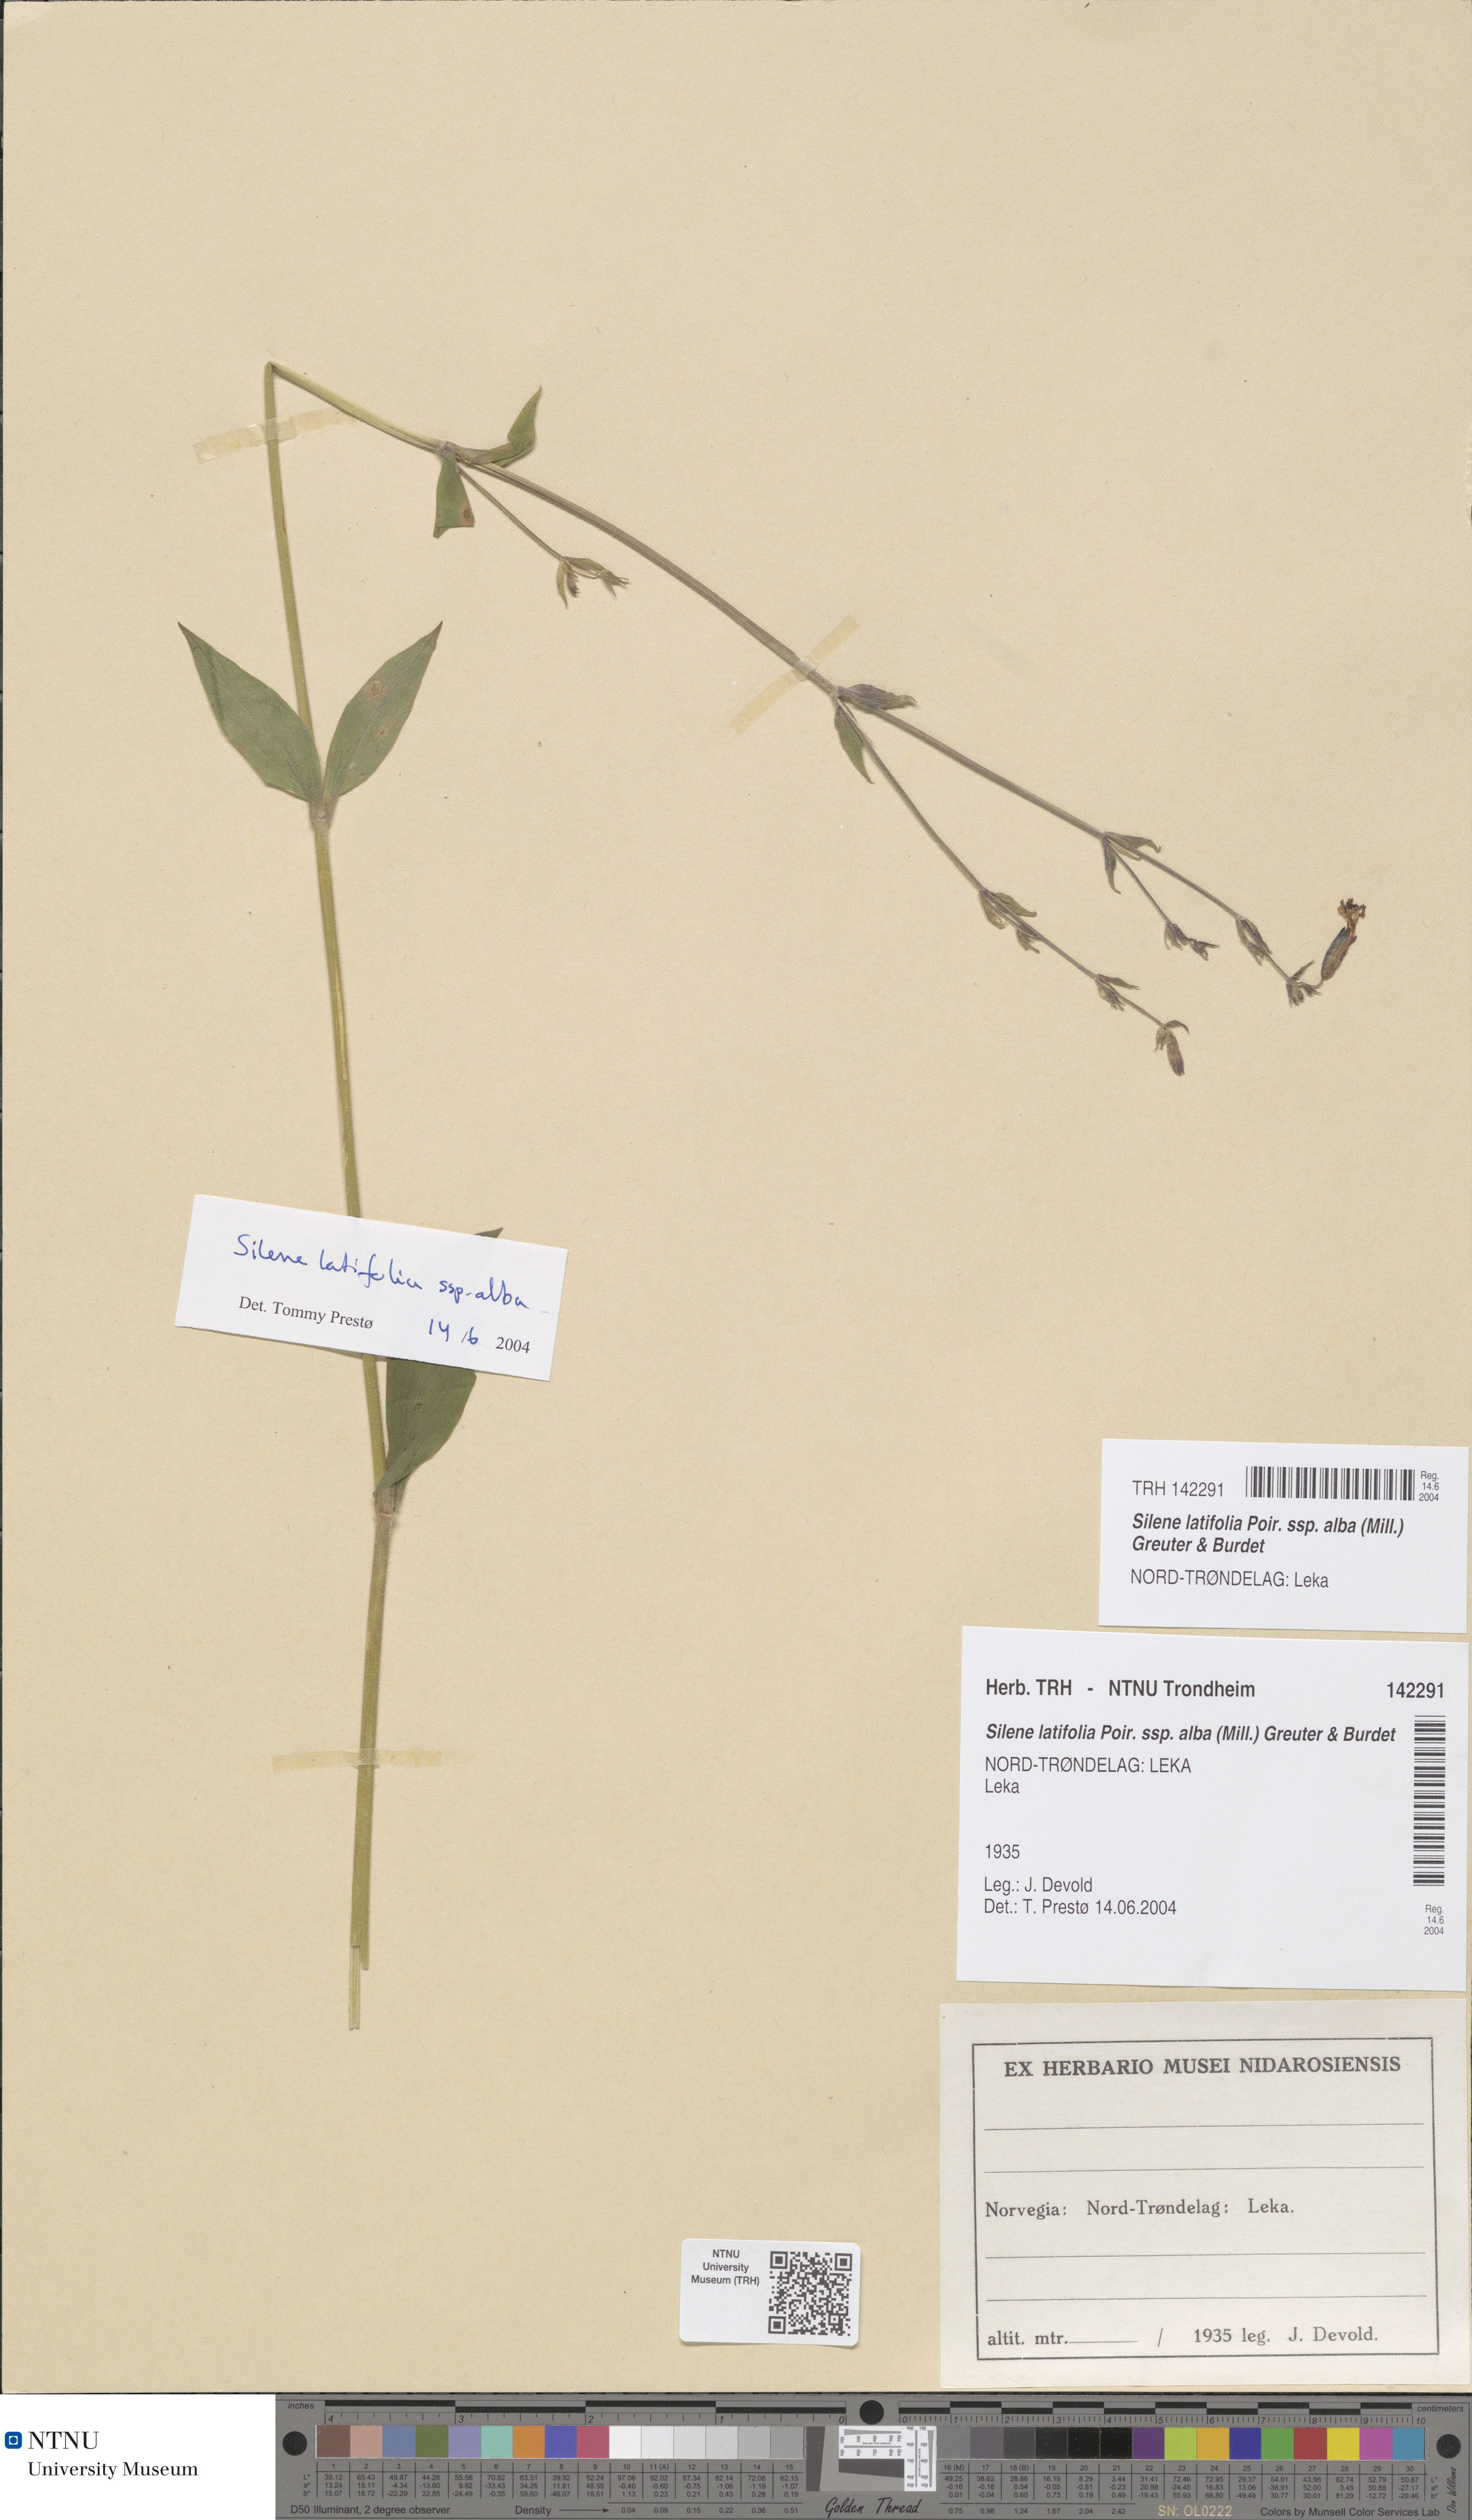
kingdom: Plantae
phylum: Tracheophyta
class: Magnoliopsida
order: Caryophyllales
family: Caryophyllaceae
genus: Silene
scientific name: Silene latifolia
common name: White campion
